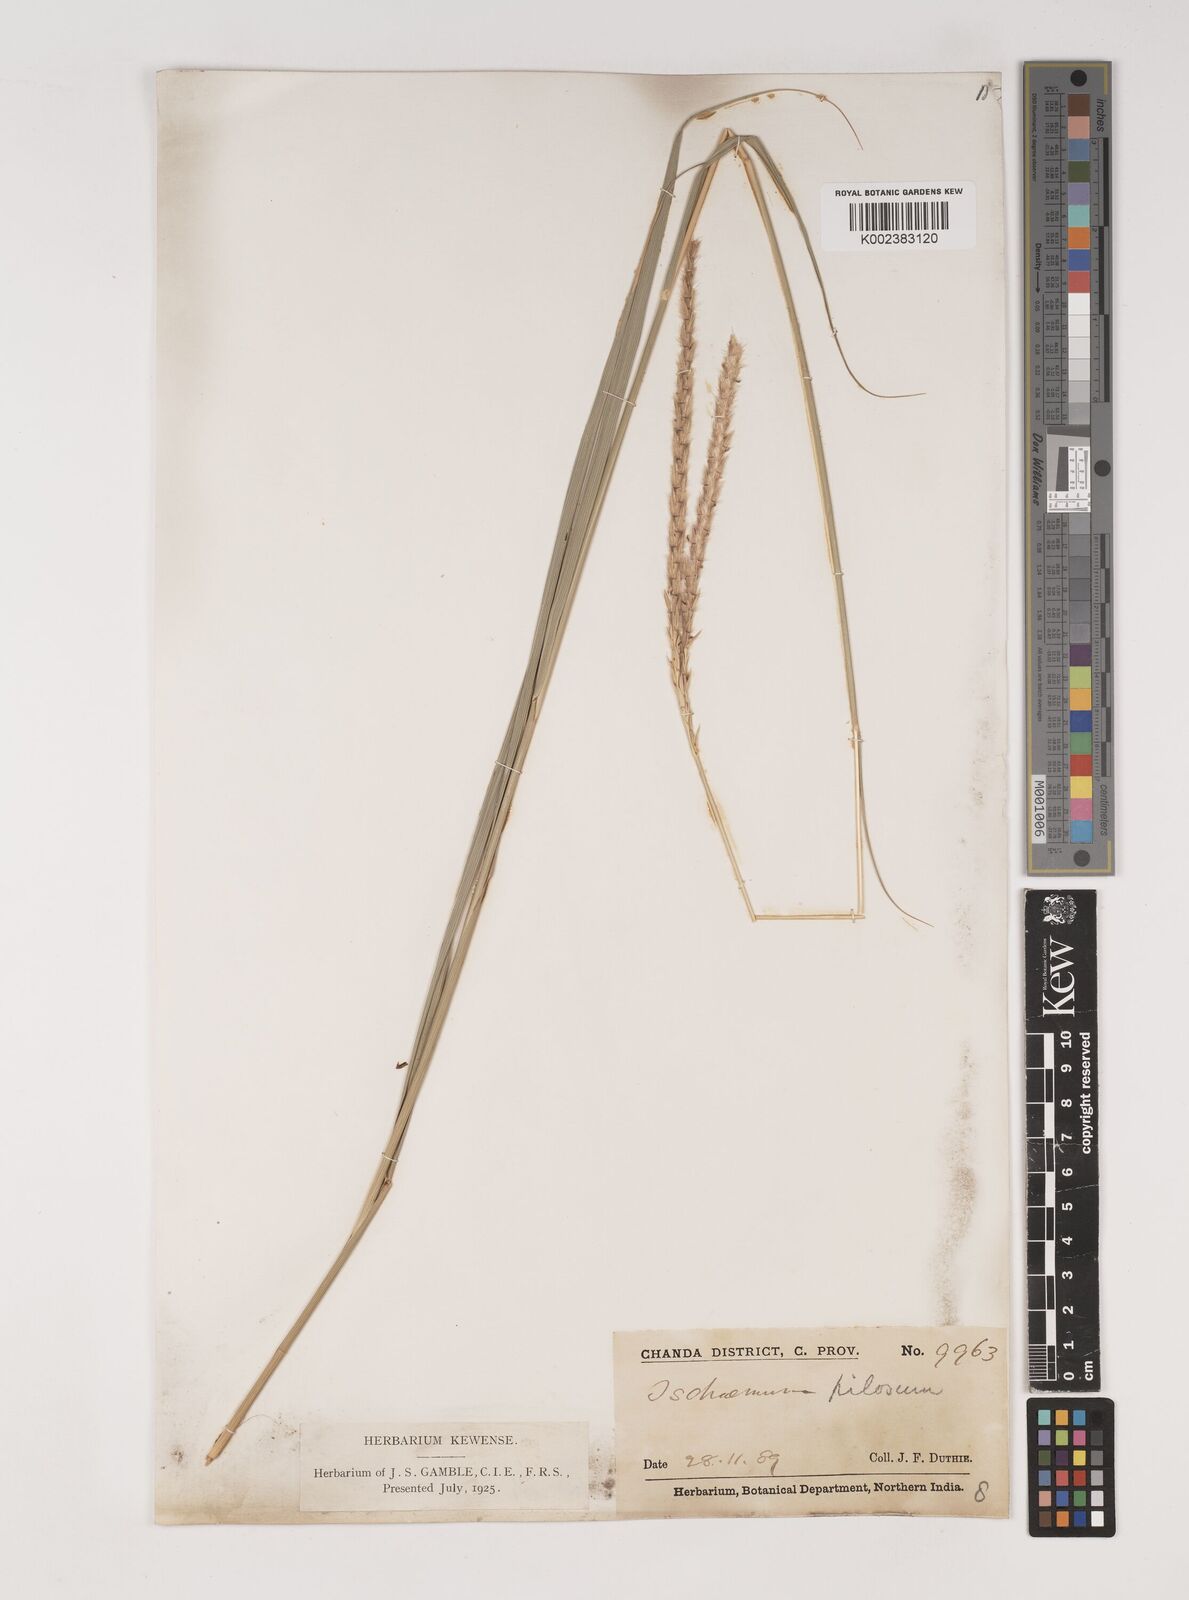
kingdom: Plantae
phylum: Tracheophyta
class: Liliopsida
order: Poales
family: Poaceae
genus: Ischaemum
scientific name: Ischaemum afrum
